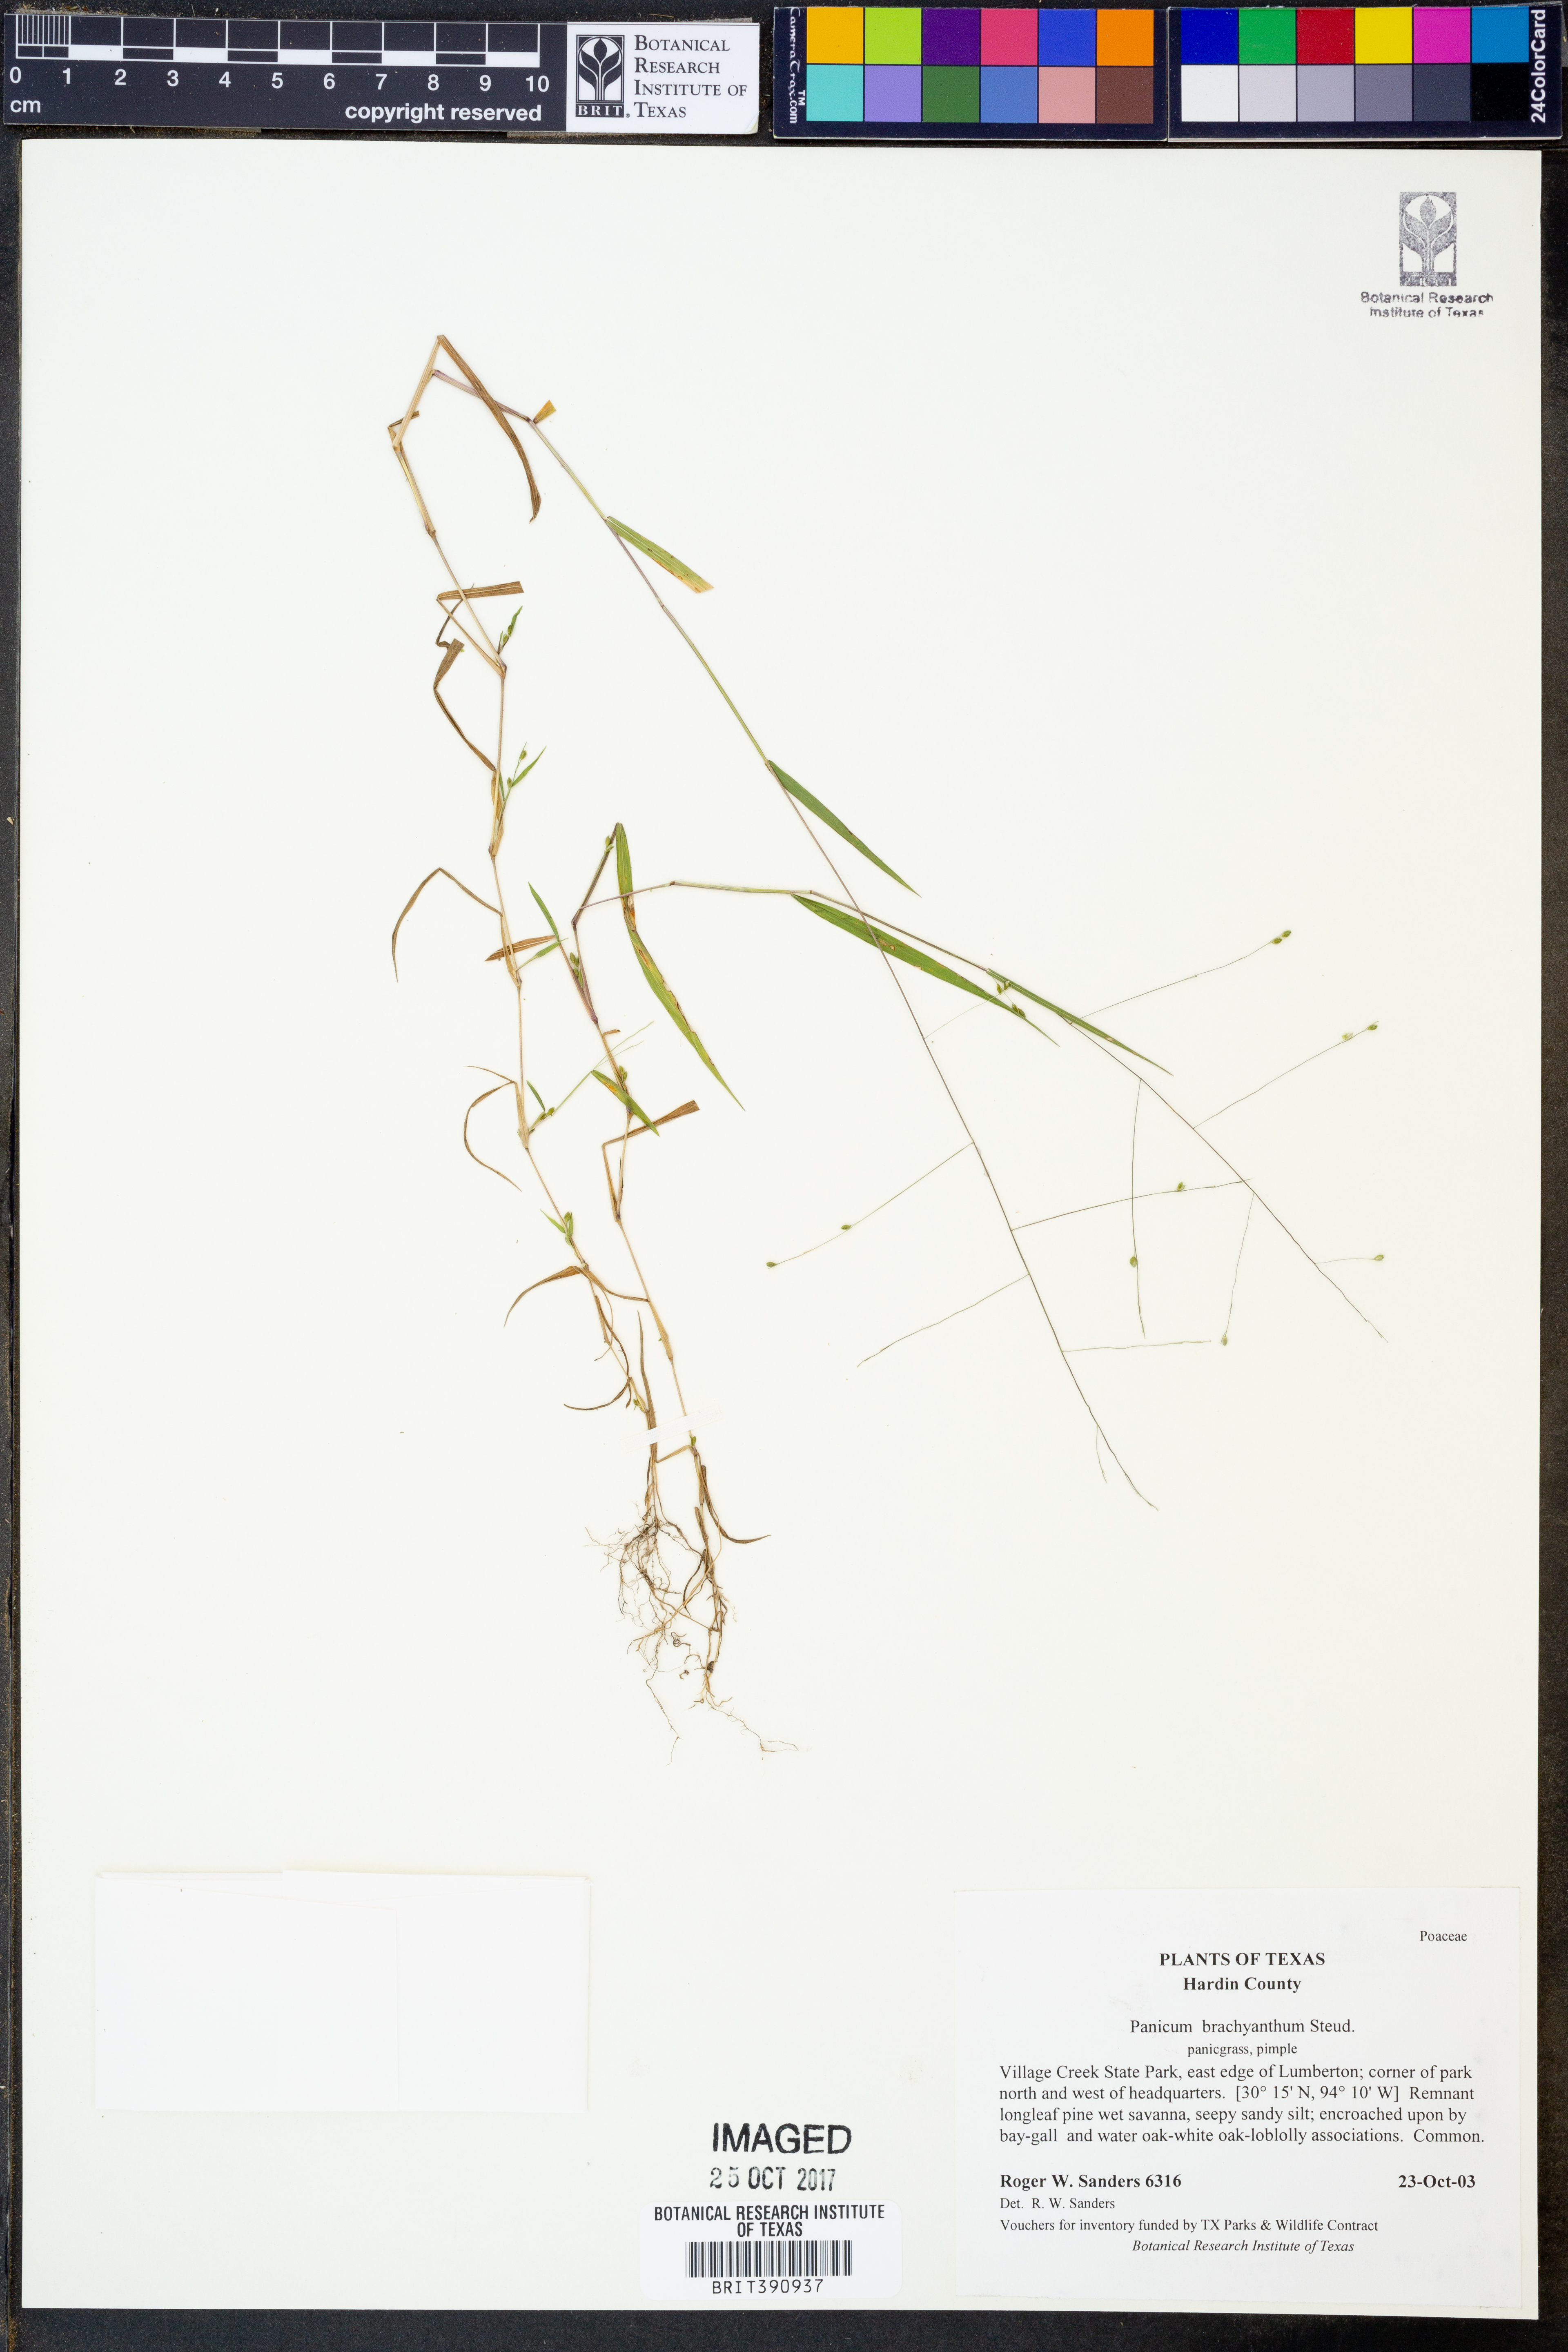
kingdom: Plantae
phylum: Tracheophyta
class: Liliopsida
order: Poales
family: Poaceae
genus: Kellochloa
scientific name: Kellochloa brachyantha
